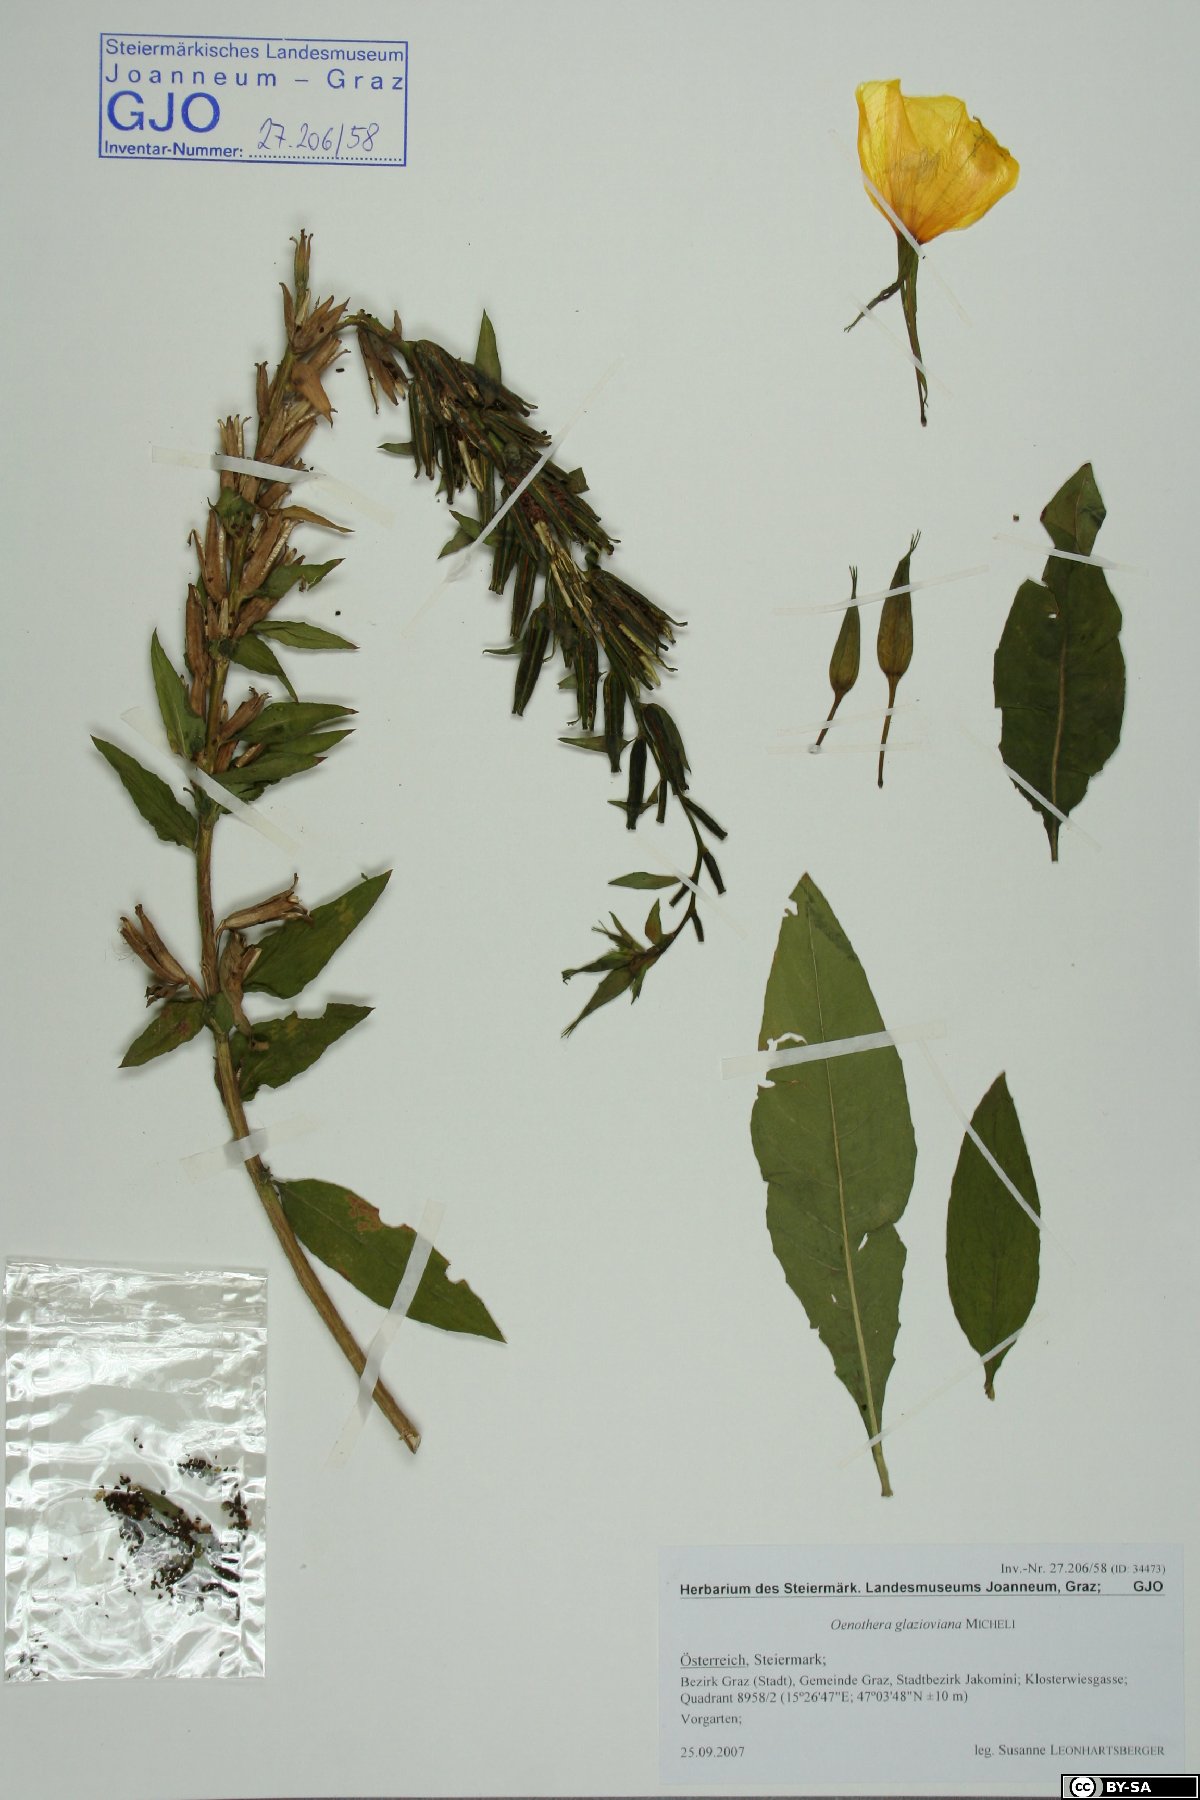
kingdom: Plantae
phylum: Tracheophyta
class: Magnoliopsida
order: Myrtales
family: Onagraceae
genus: Oenothera
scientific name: Oenothera glazioviana
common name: Large-flowered evening-primrose
